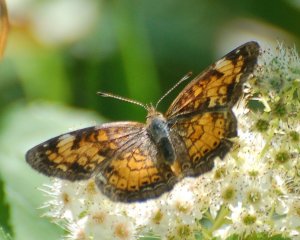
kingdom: Animalia
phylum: Arthropoda
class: Insecta
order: Lepidoptera
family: Nymphalidae
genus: Phyciodes
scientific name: Phyciodes tharos
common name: Northern Crescent
